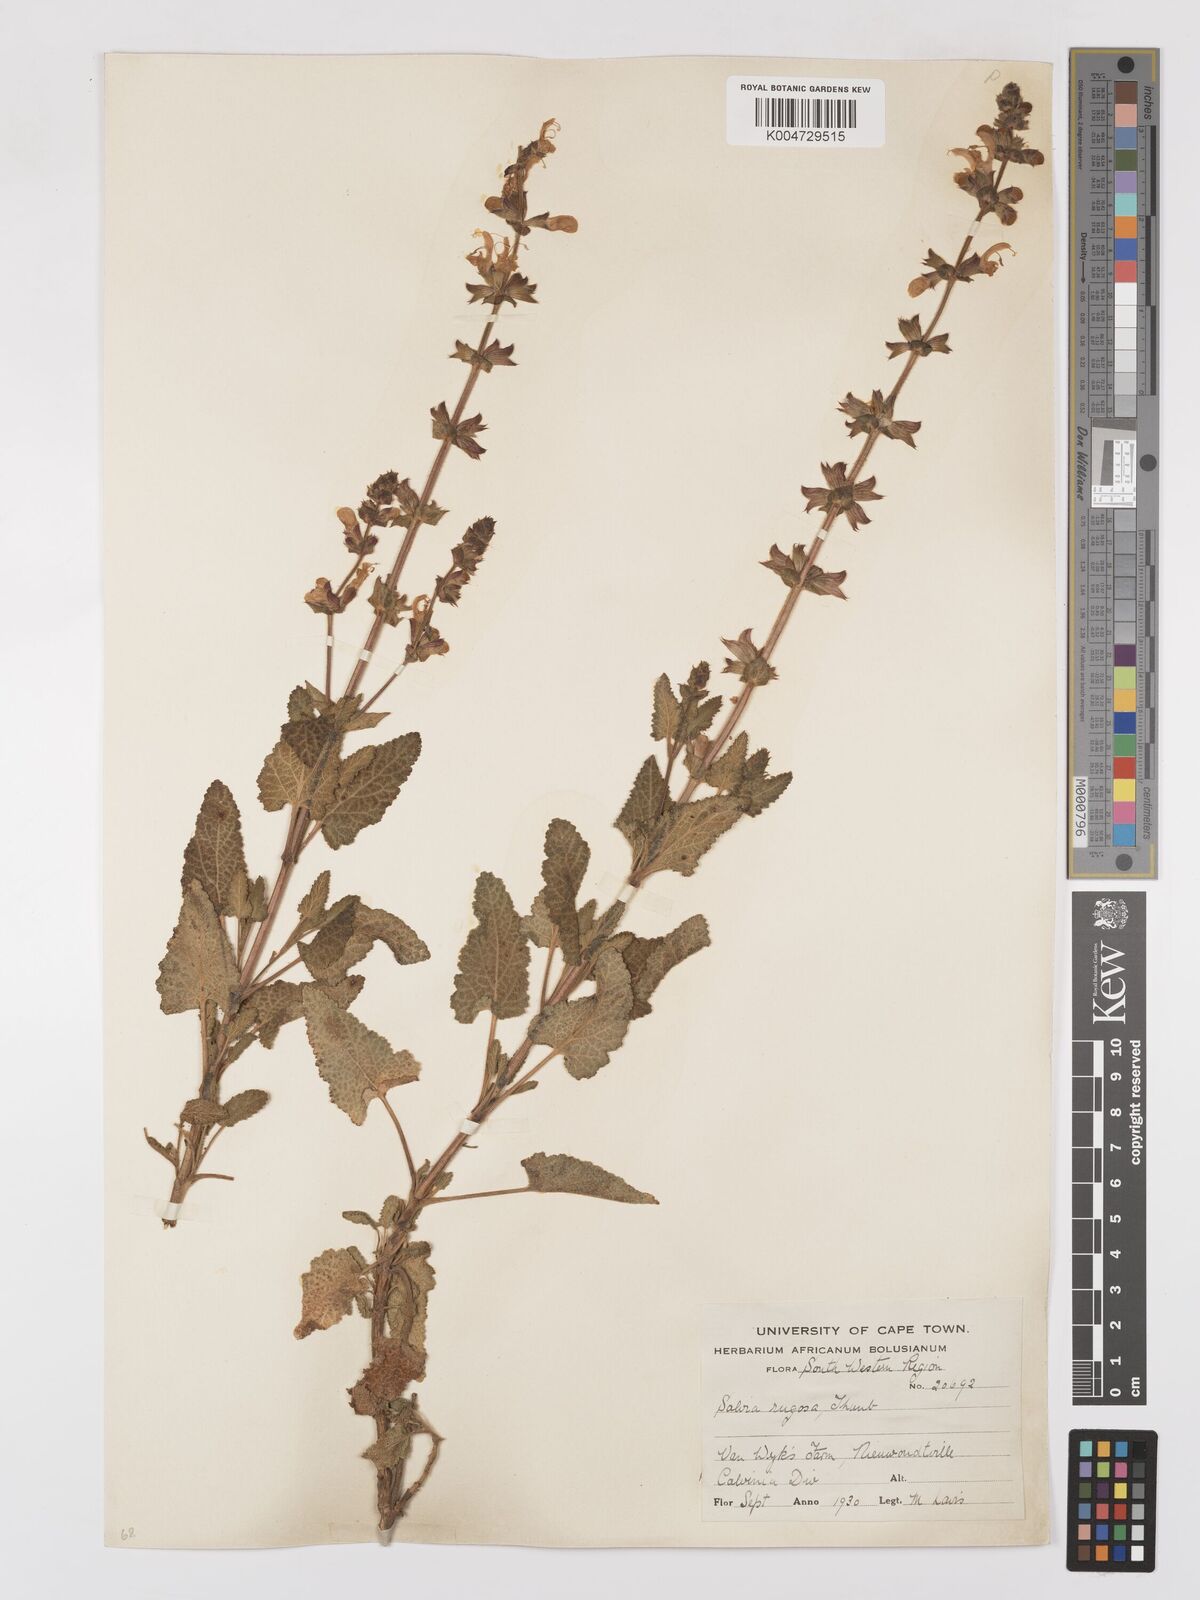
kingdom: Plantae
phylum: Tracheophyta
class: Magnoliopsida
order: Lamiales
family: Lamiaceae
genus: Salvia
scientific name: Salvia
